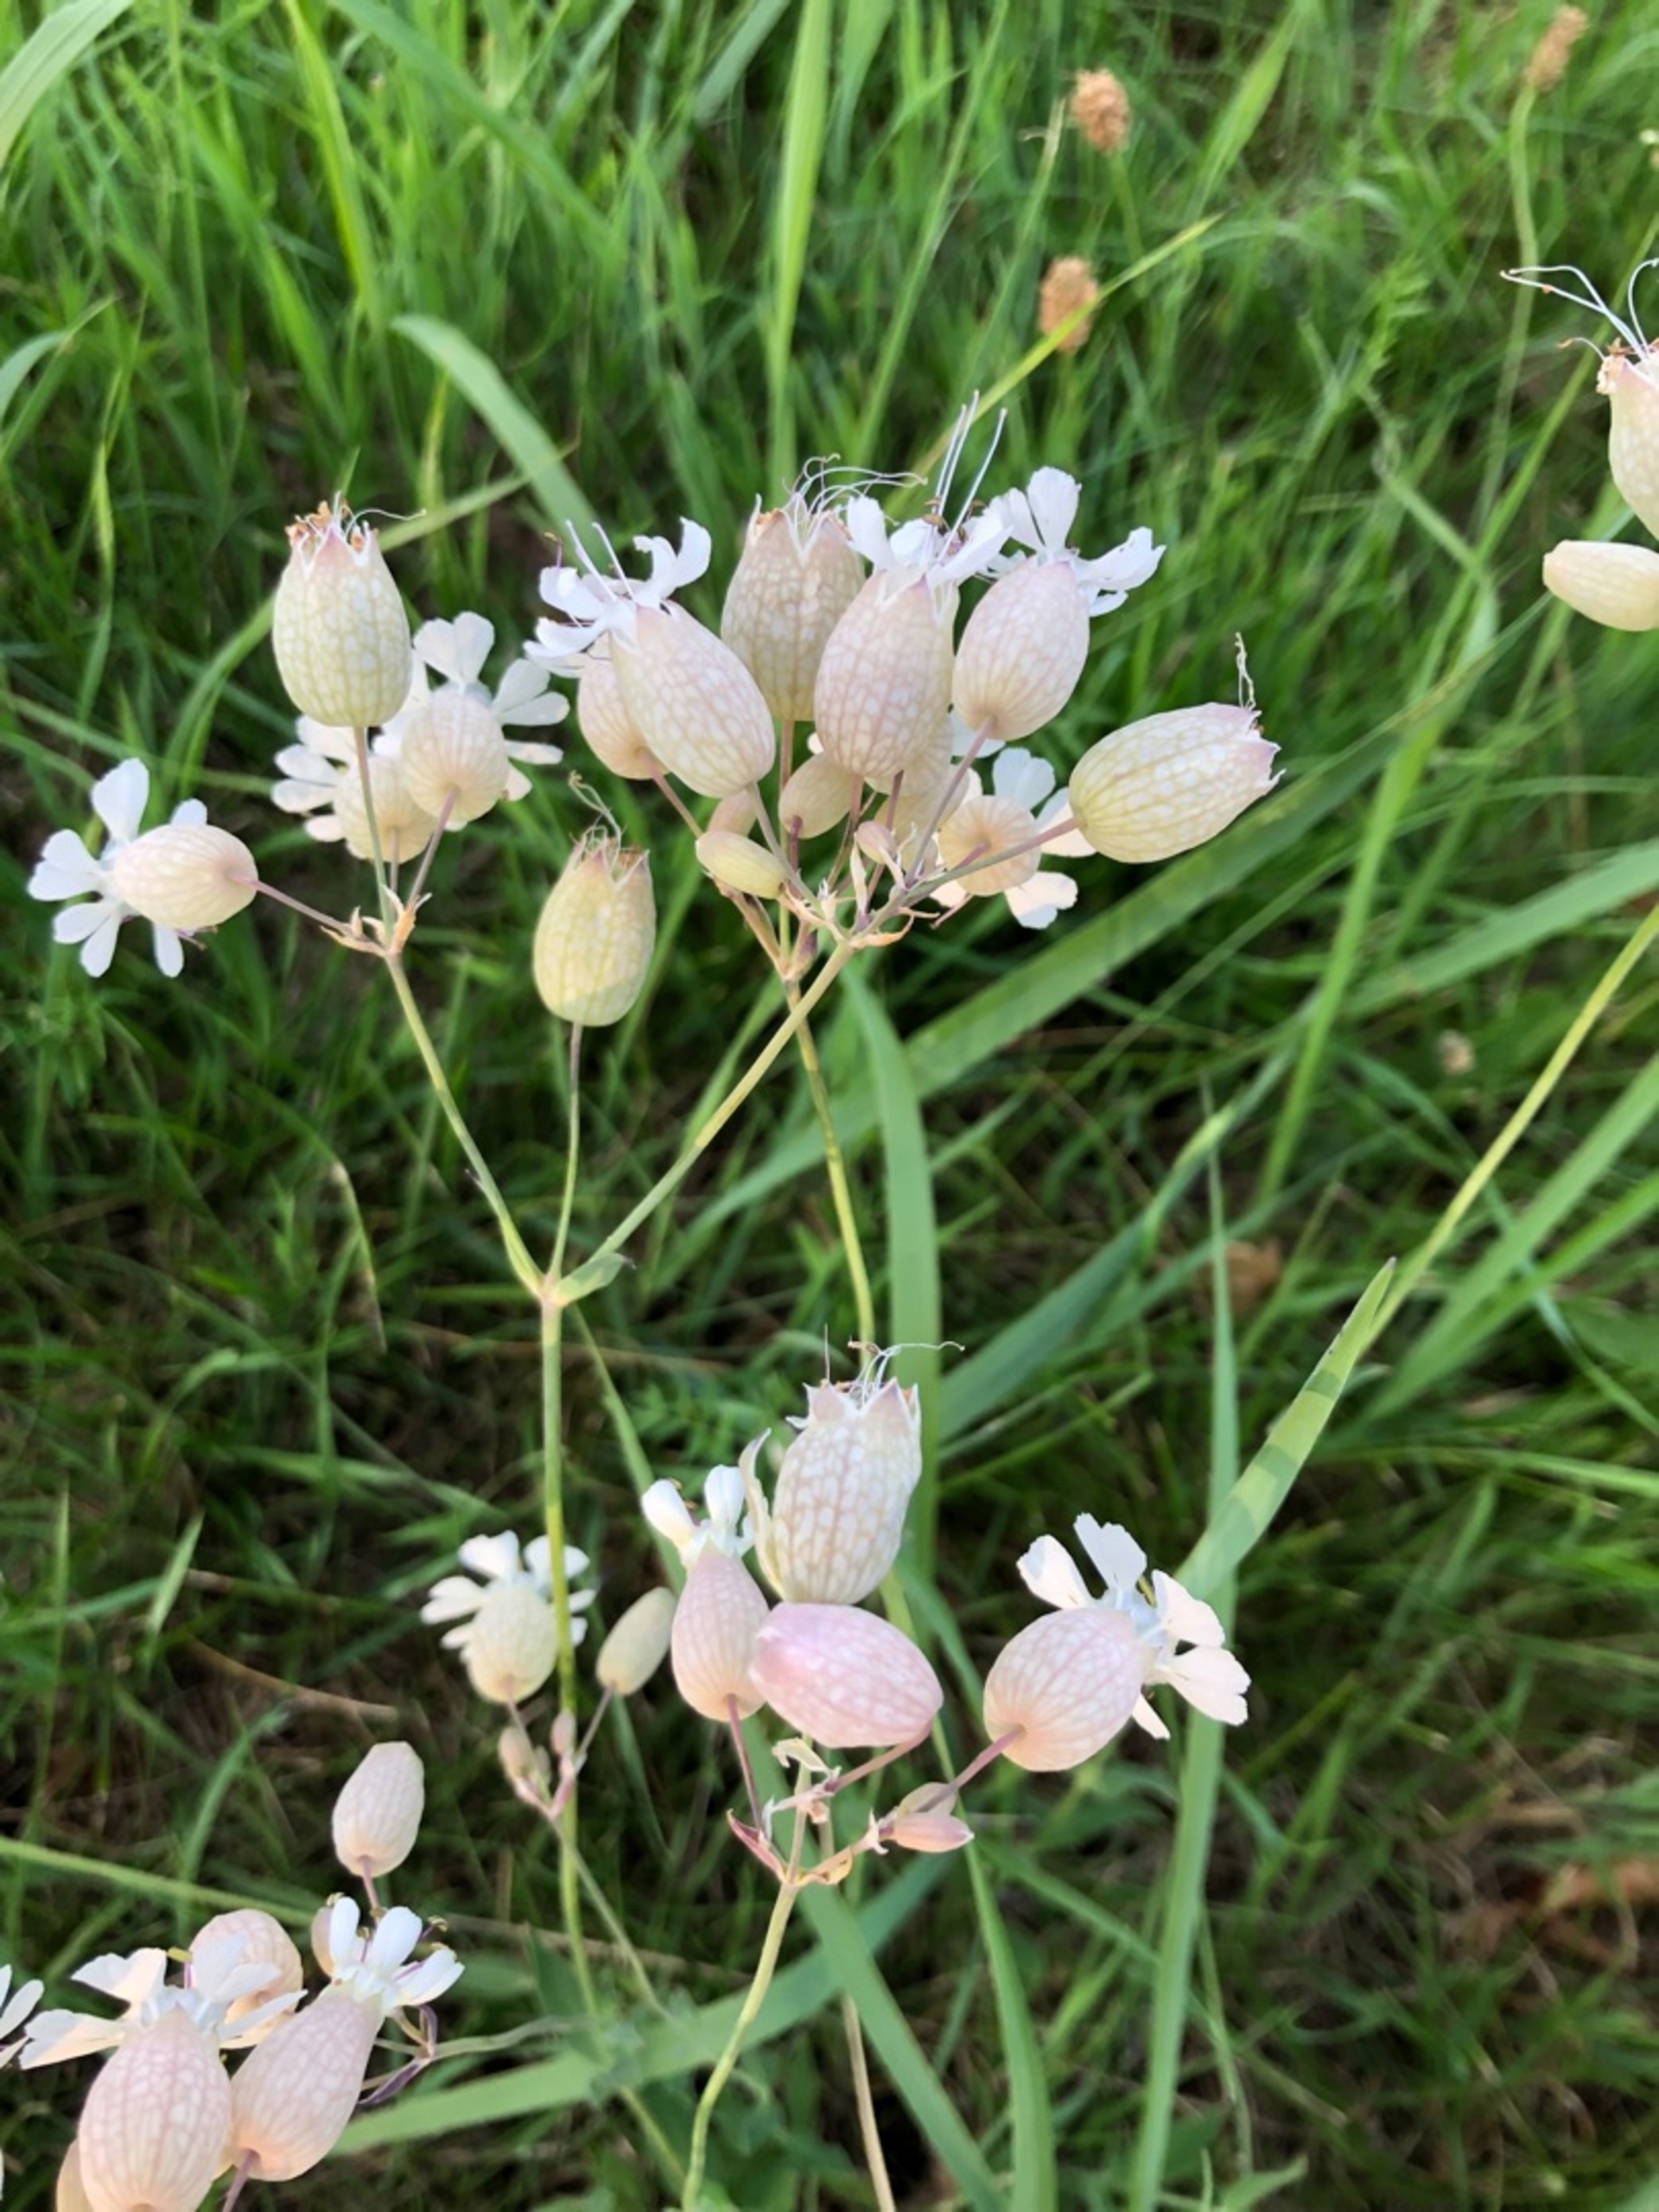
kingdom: Plantae
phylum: Tracheophyta
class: Magnoliopsida
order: Caryophyllales
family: Caryophyllaceae
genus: Silene
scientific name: Silene vulgaris
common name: Blæresmælde
